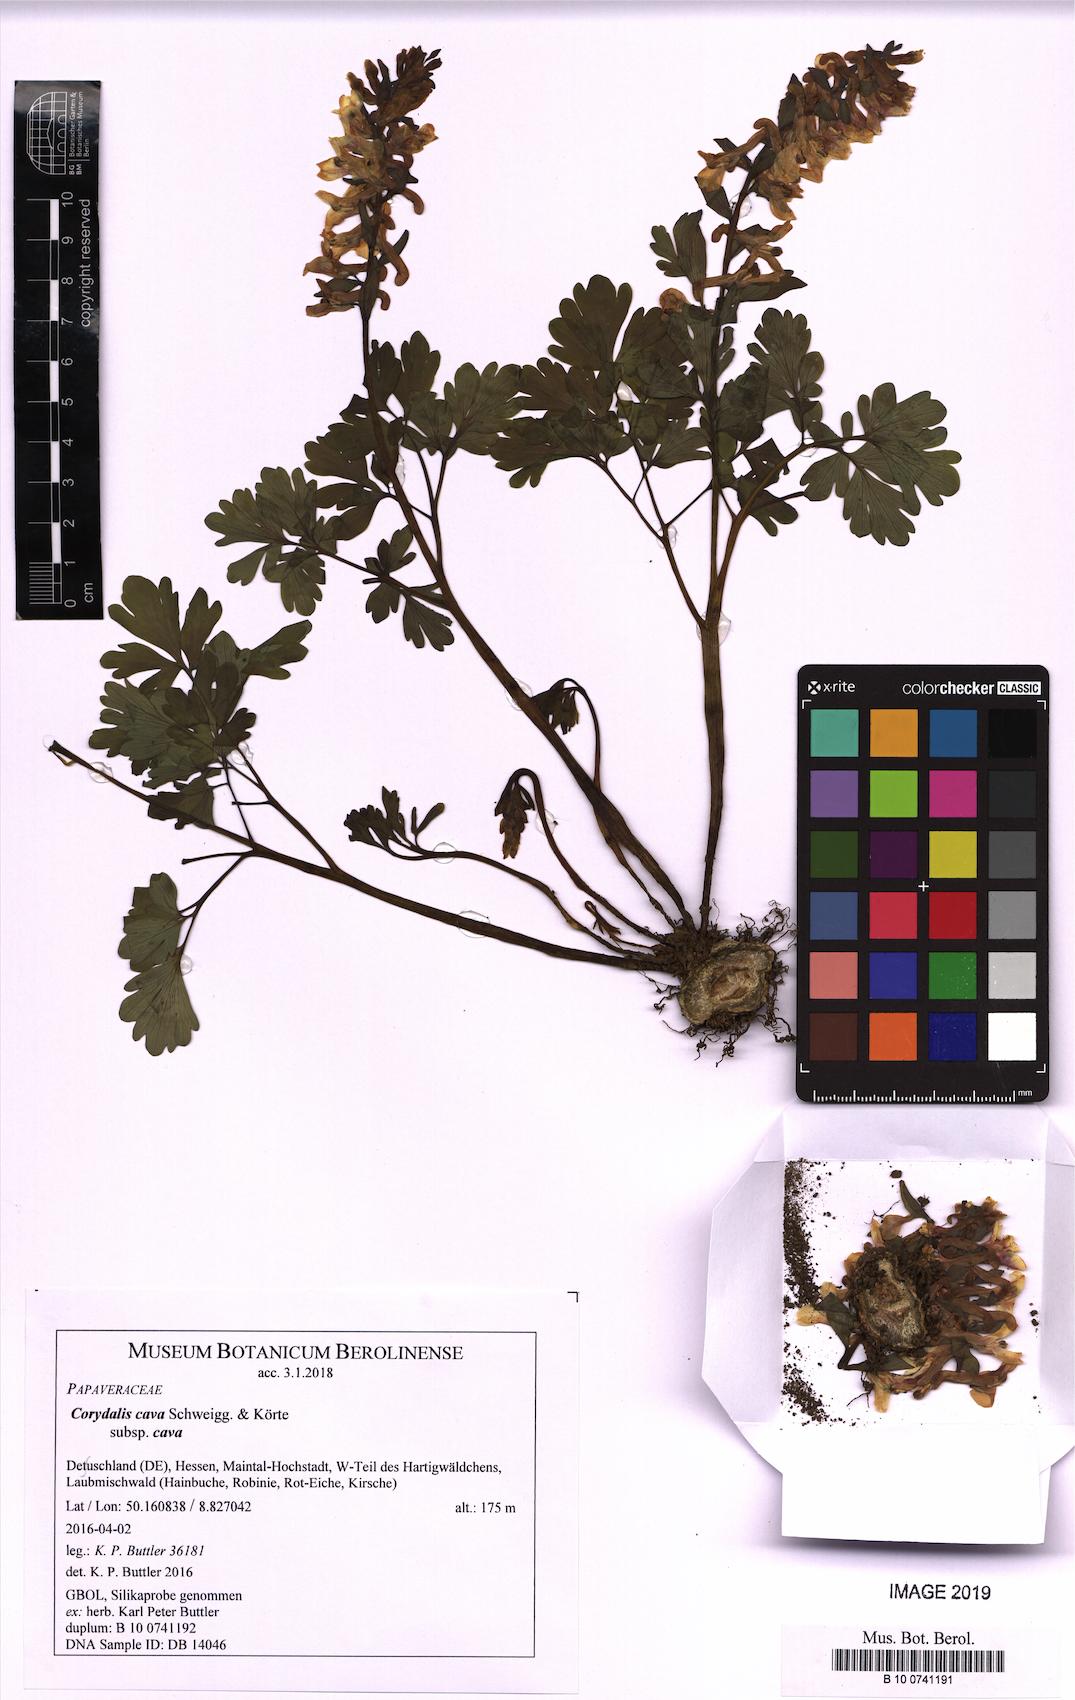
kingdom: Plantae
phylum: Tracheophyta
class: Magnoliopsida
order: Ranunculales
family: Papaveraceae
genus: Corydalis
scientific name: Corydalis cava
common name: Hollowroot
